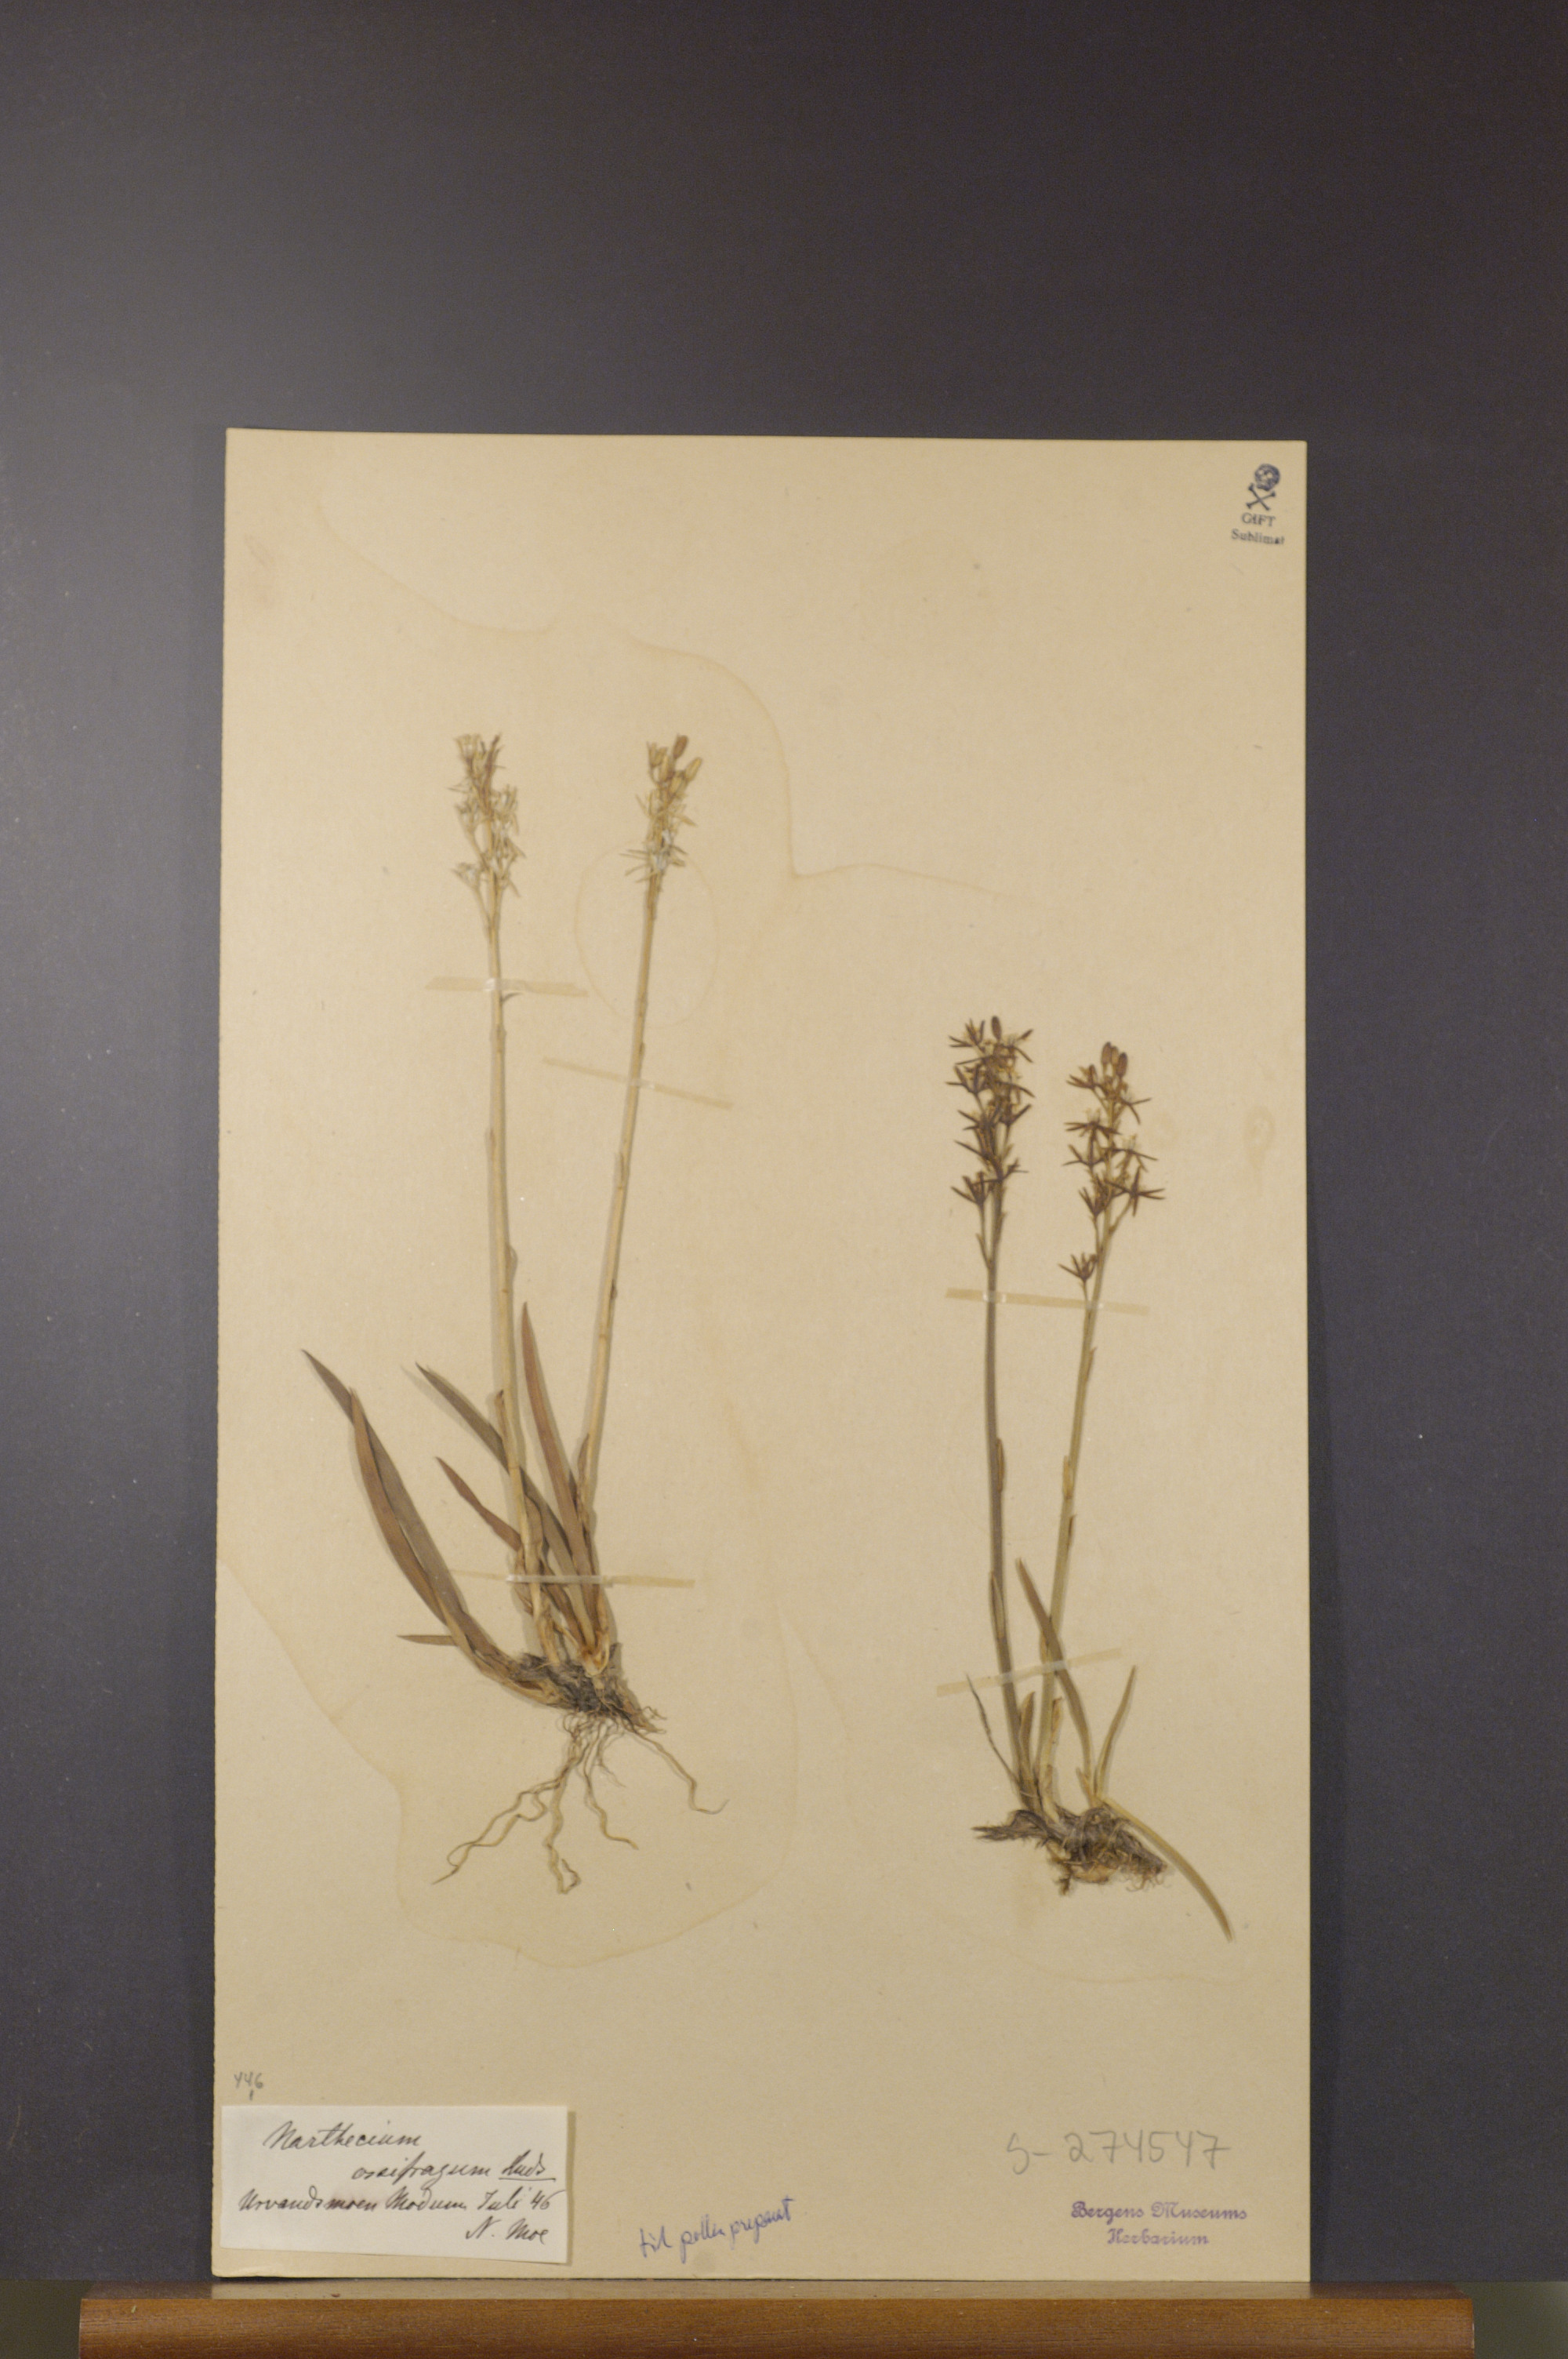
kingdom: Plantae
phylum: Tracheophyta
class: Liliopsida
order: Dioscoreales
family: Nartheciaceae
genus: Narthecium
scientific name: Narthecium ossifragum
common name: Bog asphodel
